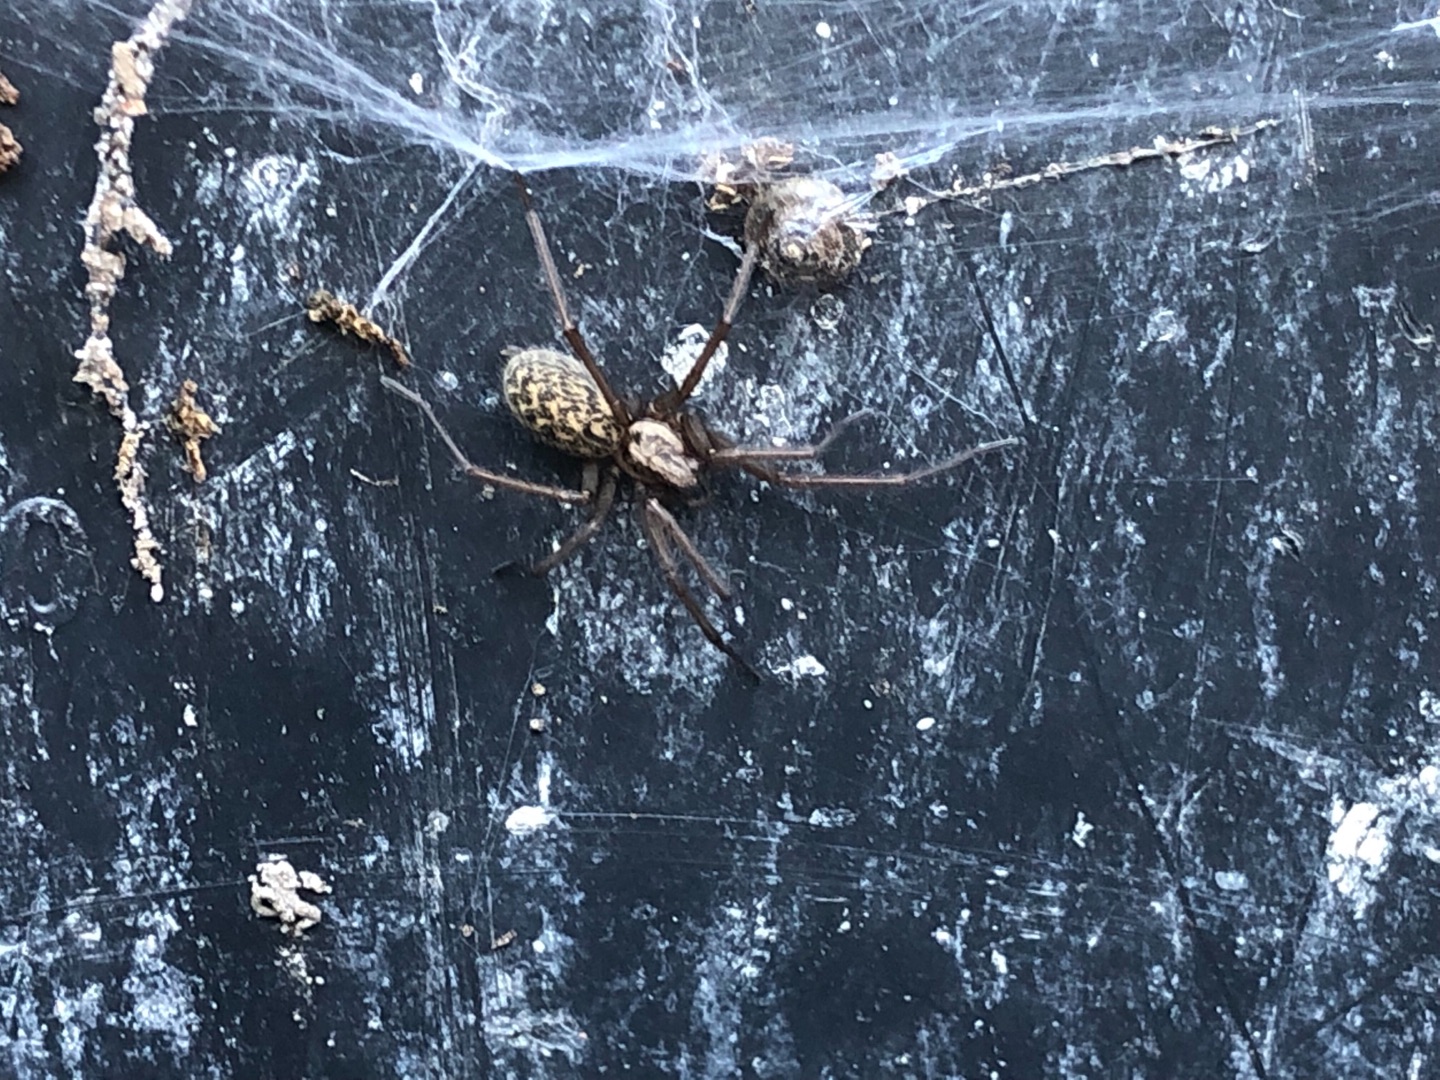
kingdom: Animalia
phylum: Arthropoda
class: Arachnida
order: Araneae
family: Agelenidae
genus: Eratigena
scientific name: Eratigena atrica
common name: Stor husedderkop
